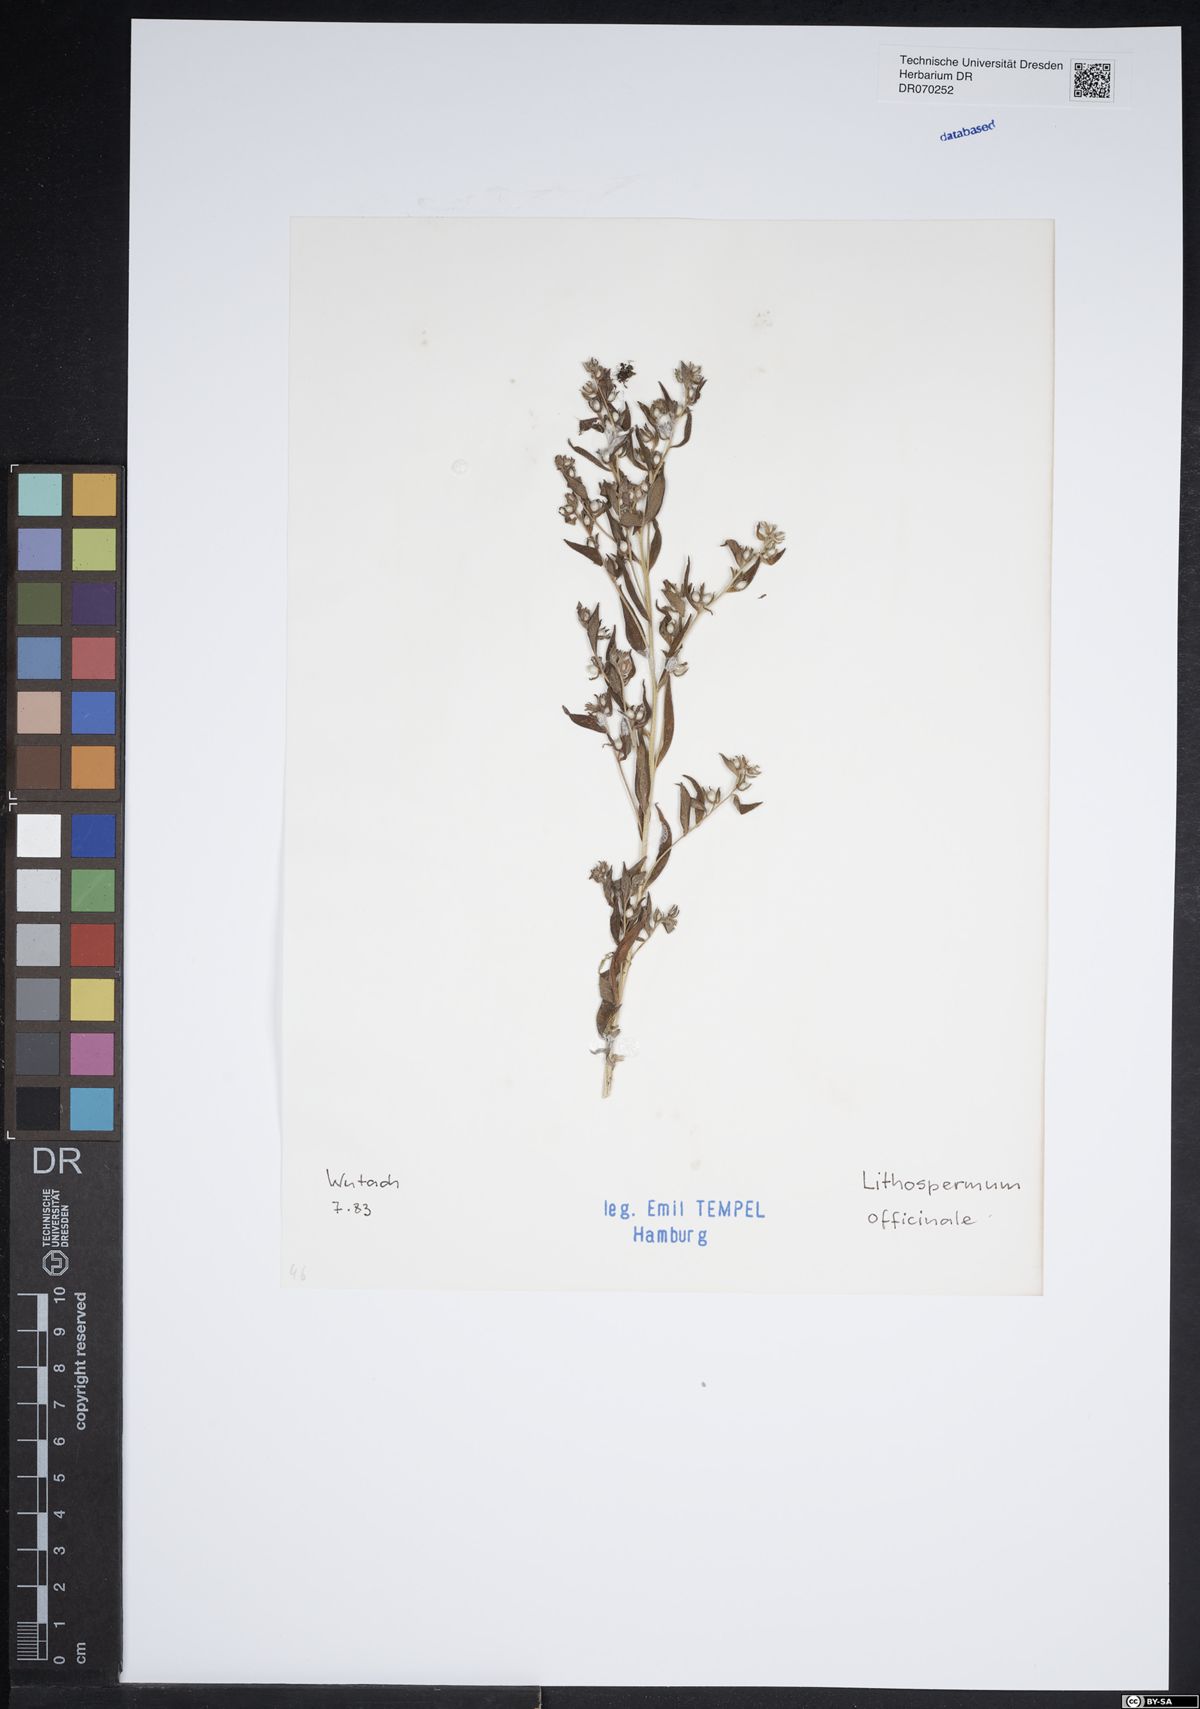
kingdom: Plantae
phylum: Tracheophyta
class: Magnoliopsida
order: Boraginales
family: Boraginaceae
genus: Lithospermum
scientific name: Lithospermum officinale
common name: Common gromwell
